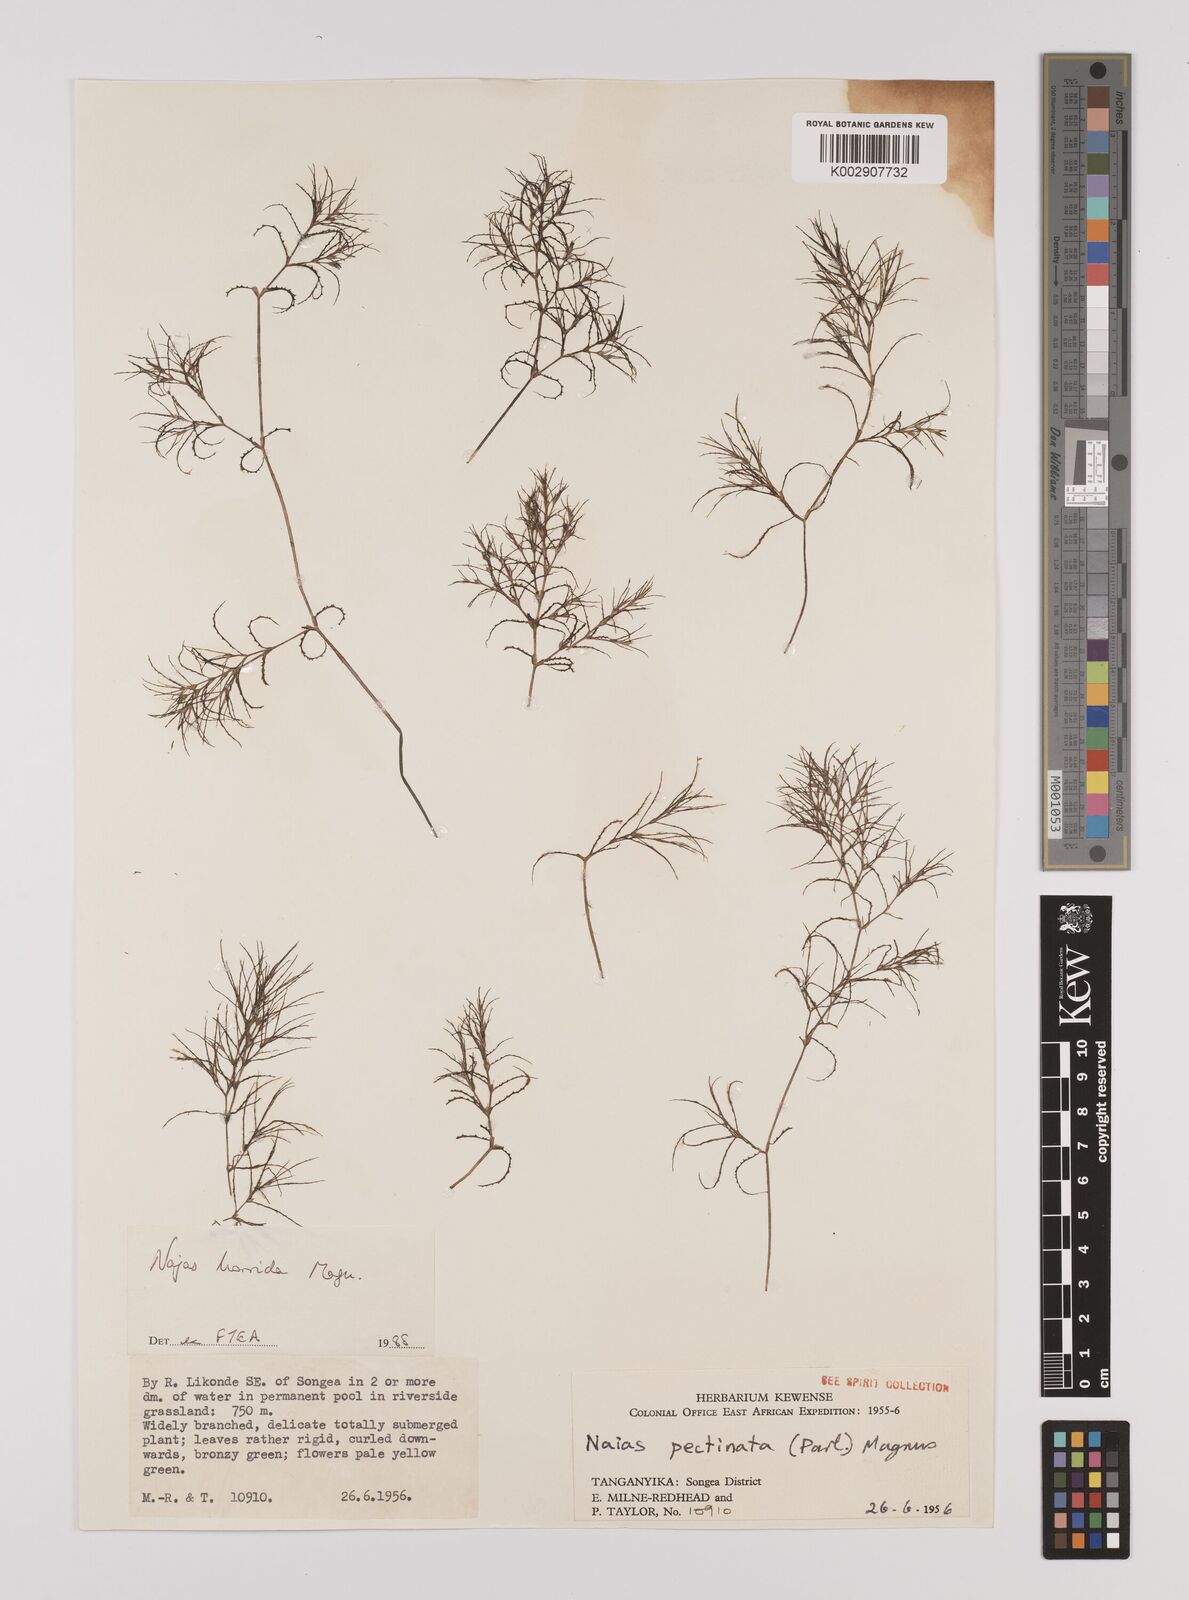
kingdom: Plantae
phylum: Tracheophyta
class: Liliopsida
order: Alismatales
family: Hydrocharitaceae
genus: Najas
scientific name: Najas horrida
